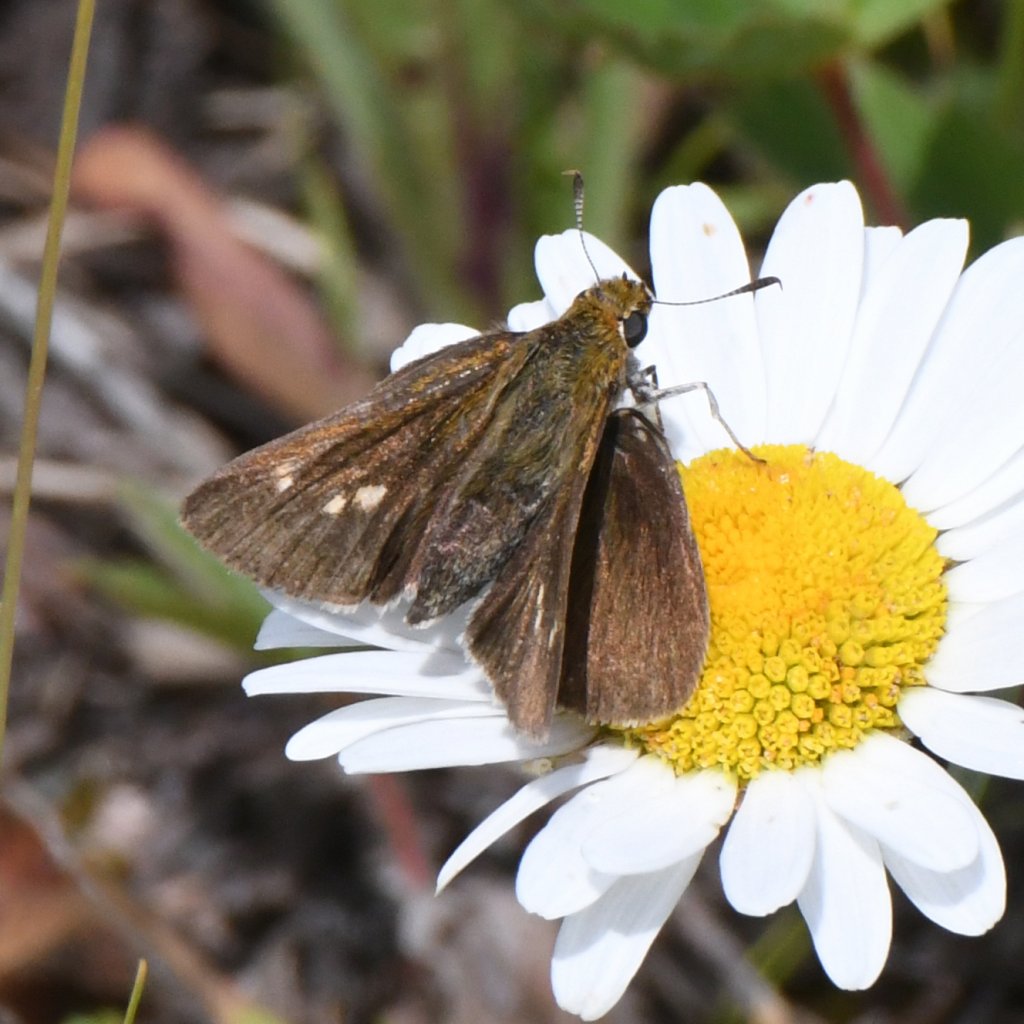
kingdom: Animalia
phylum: Arthropoda
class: Insecta
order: Lepidoptera
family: Hesperiidae
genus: Euphyes
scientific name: Euphyes vestris
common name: Dun Skipper
